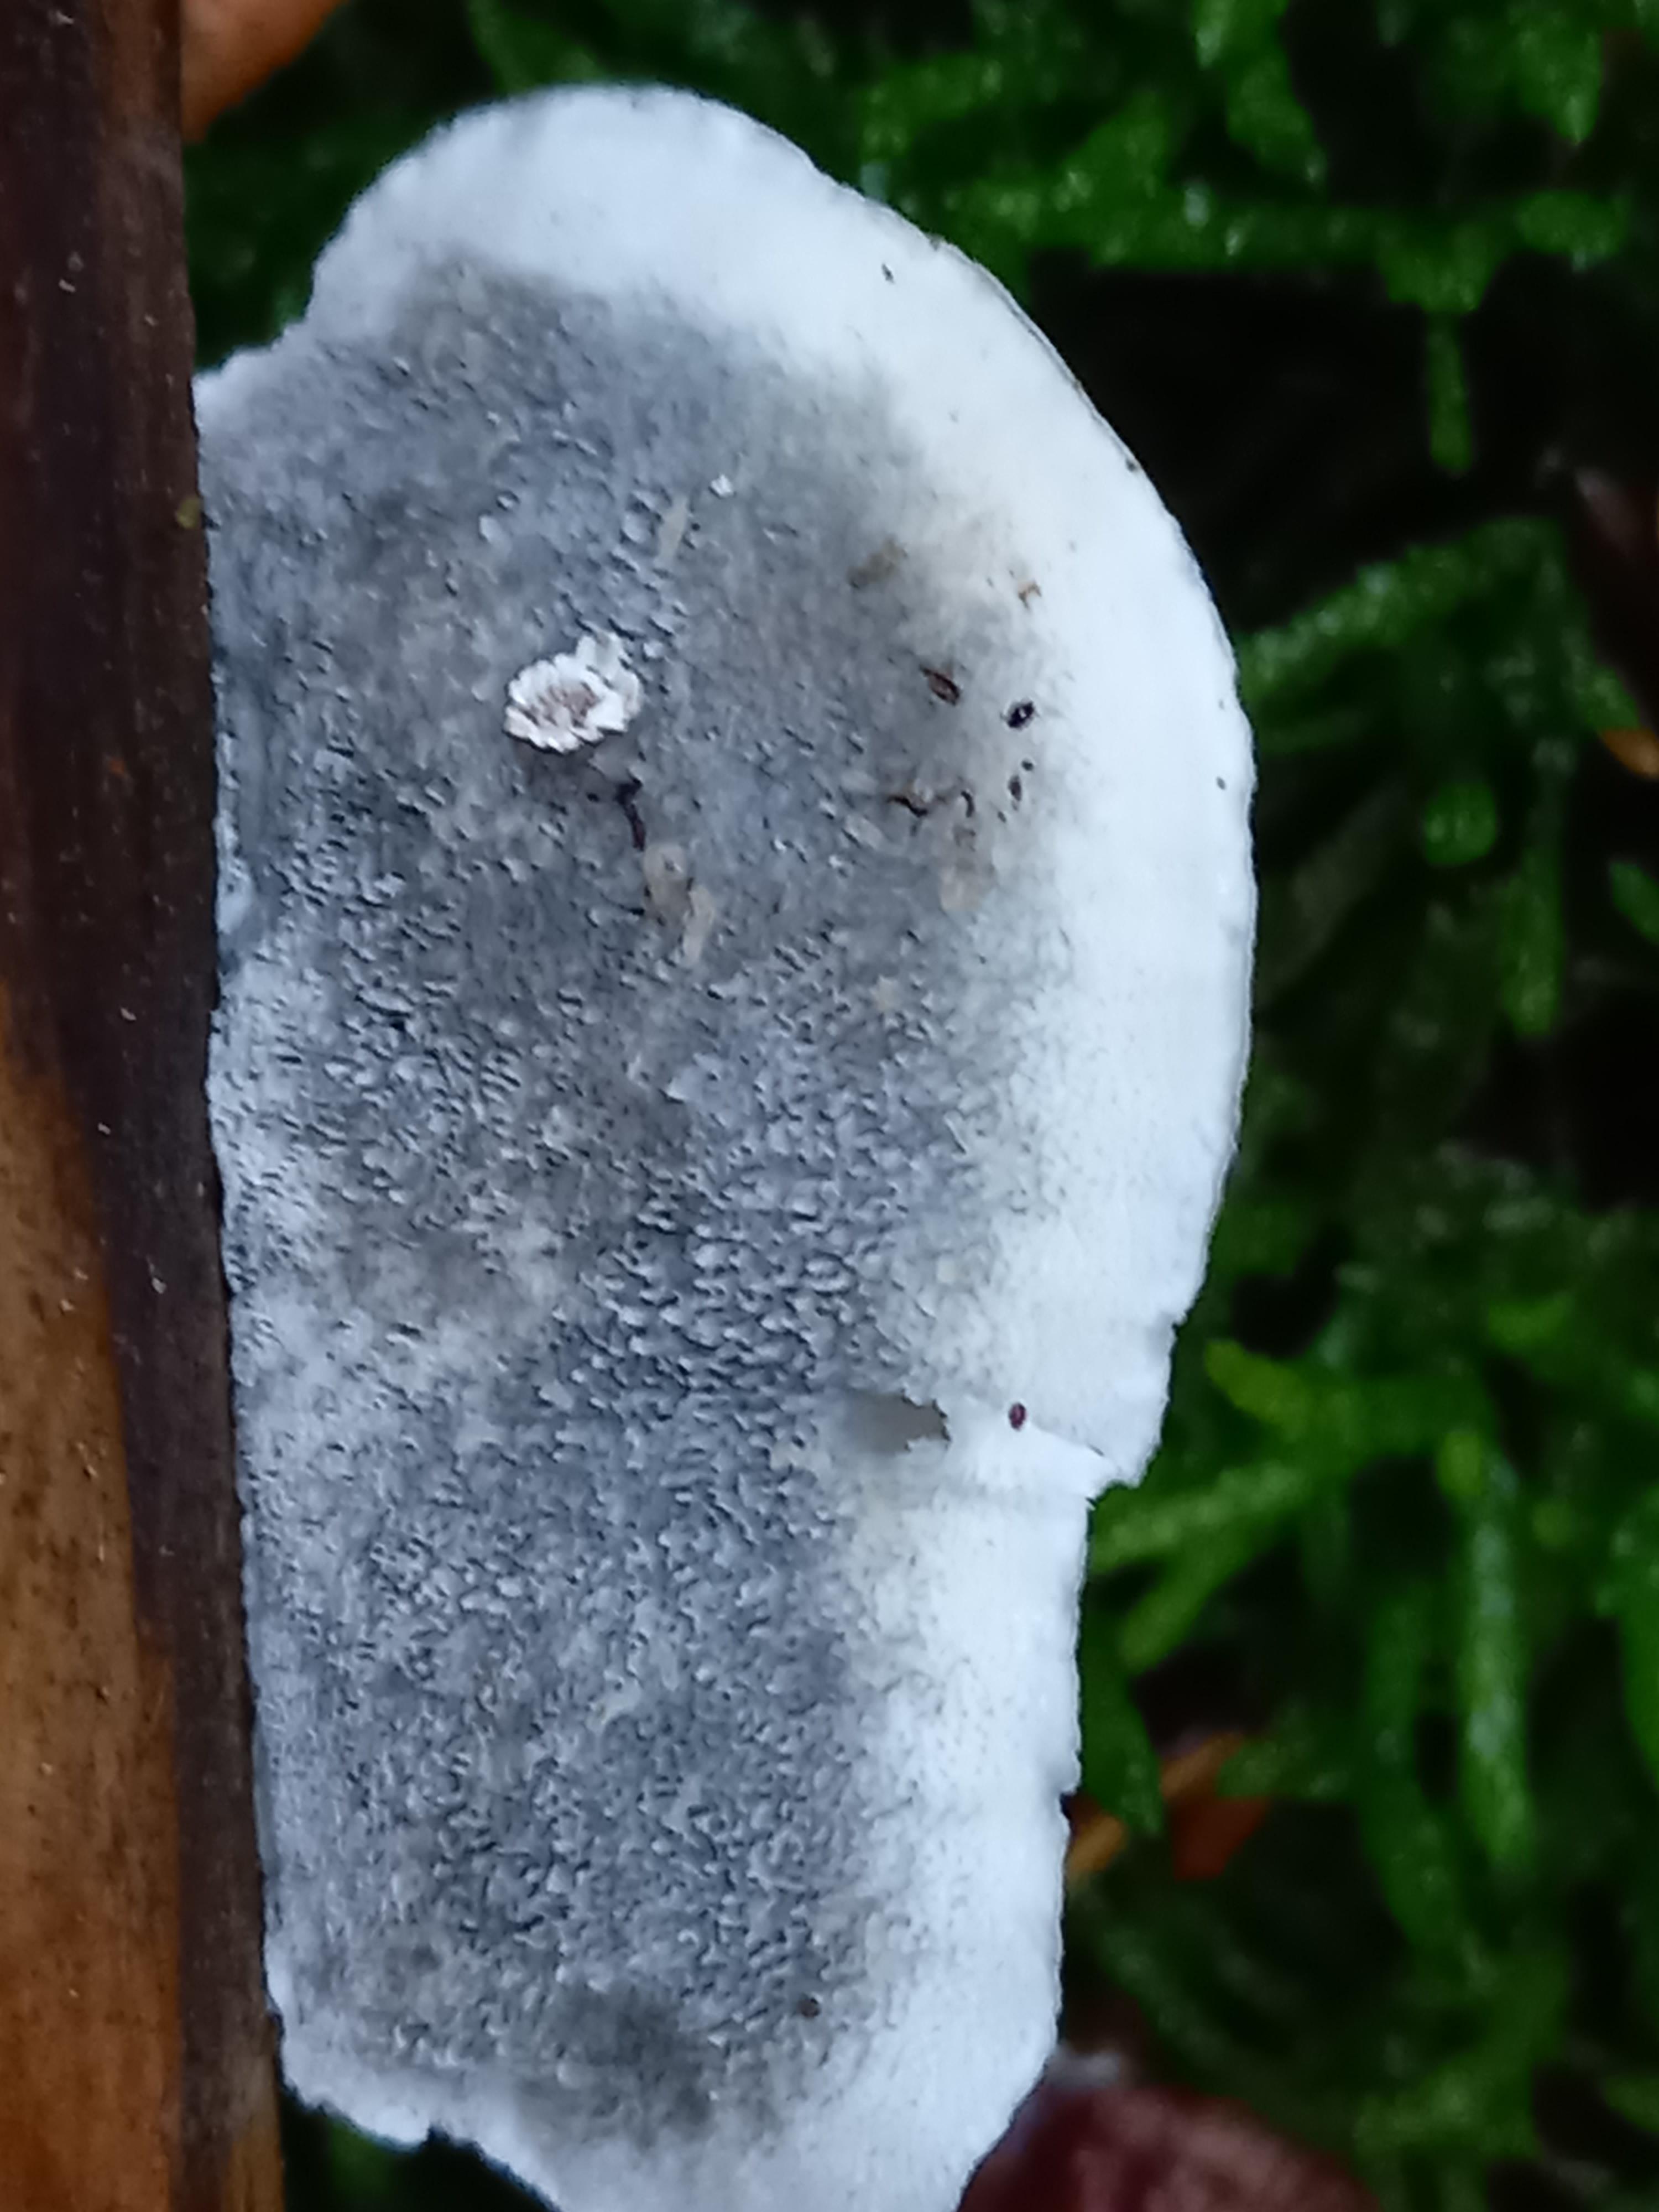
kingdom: Fungi
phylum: Basidiomycota
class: Agaricomycetes
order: Polyporales
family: Polyporaceae
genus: Cyanosporus
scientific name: Cyanosporus caesius
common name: blålig kødporesvamp
